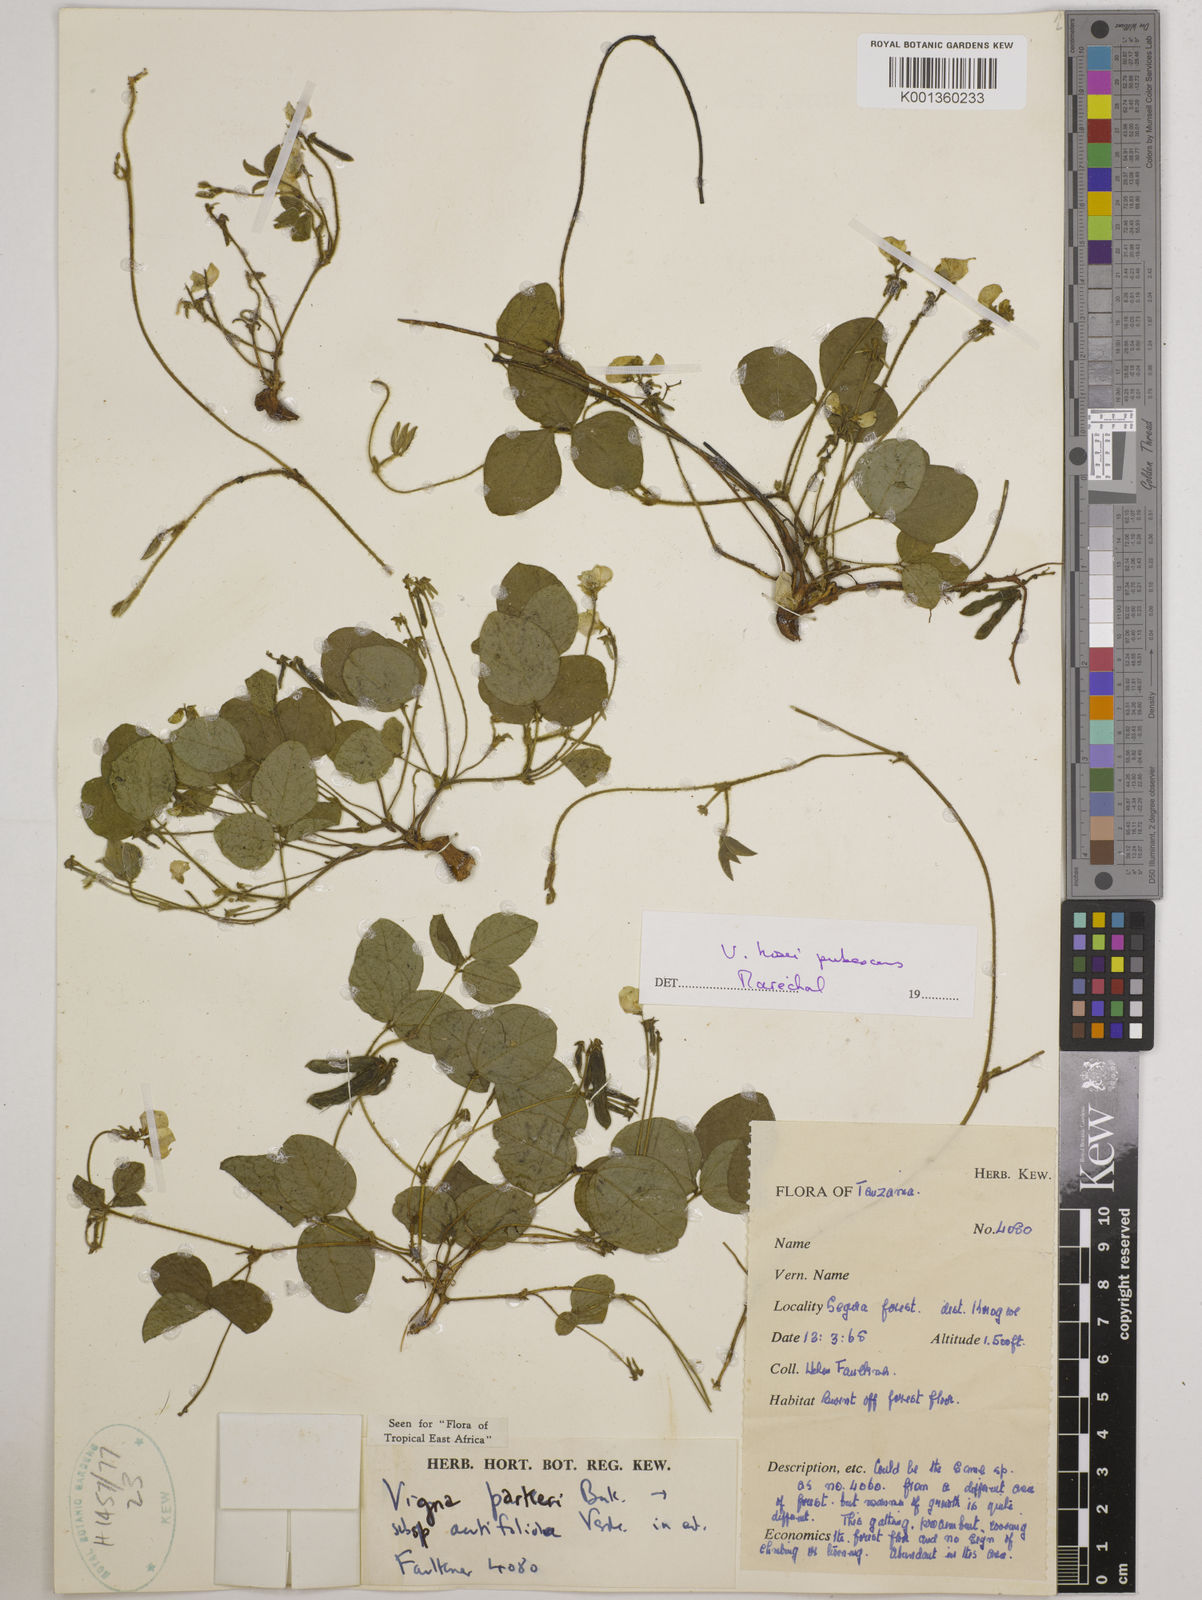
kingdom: Plantae
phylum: Tracheophyta
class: Magnoliopsida
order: Fabales
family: Fabaceae
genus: Vigna
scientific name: Vigna hosei
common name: Sarawak-bean
